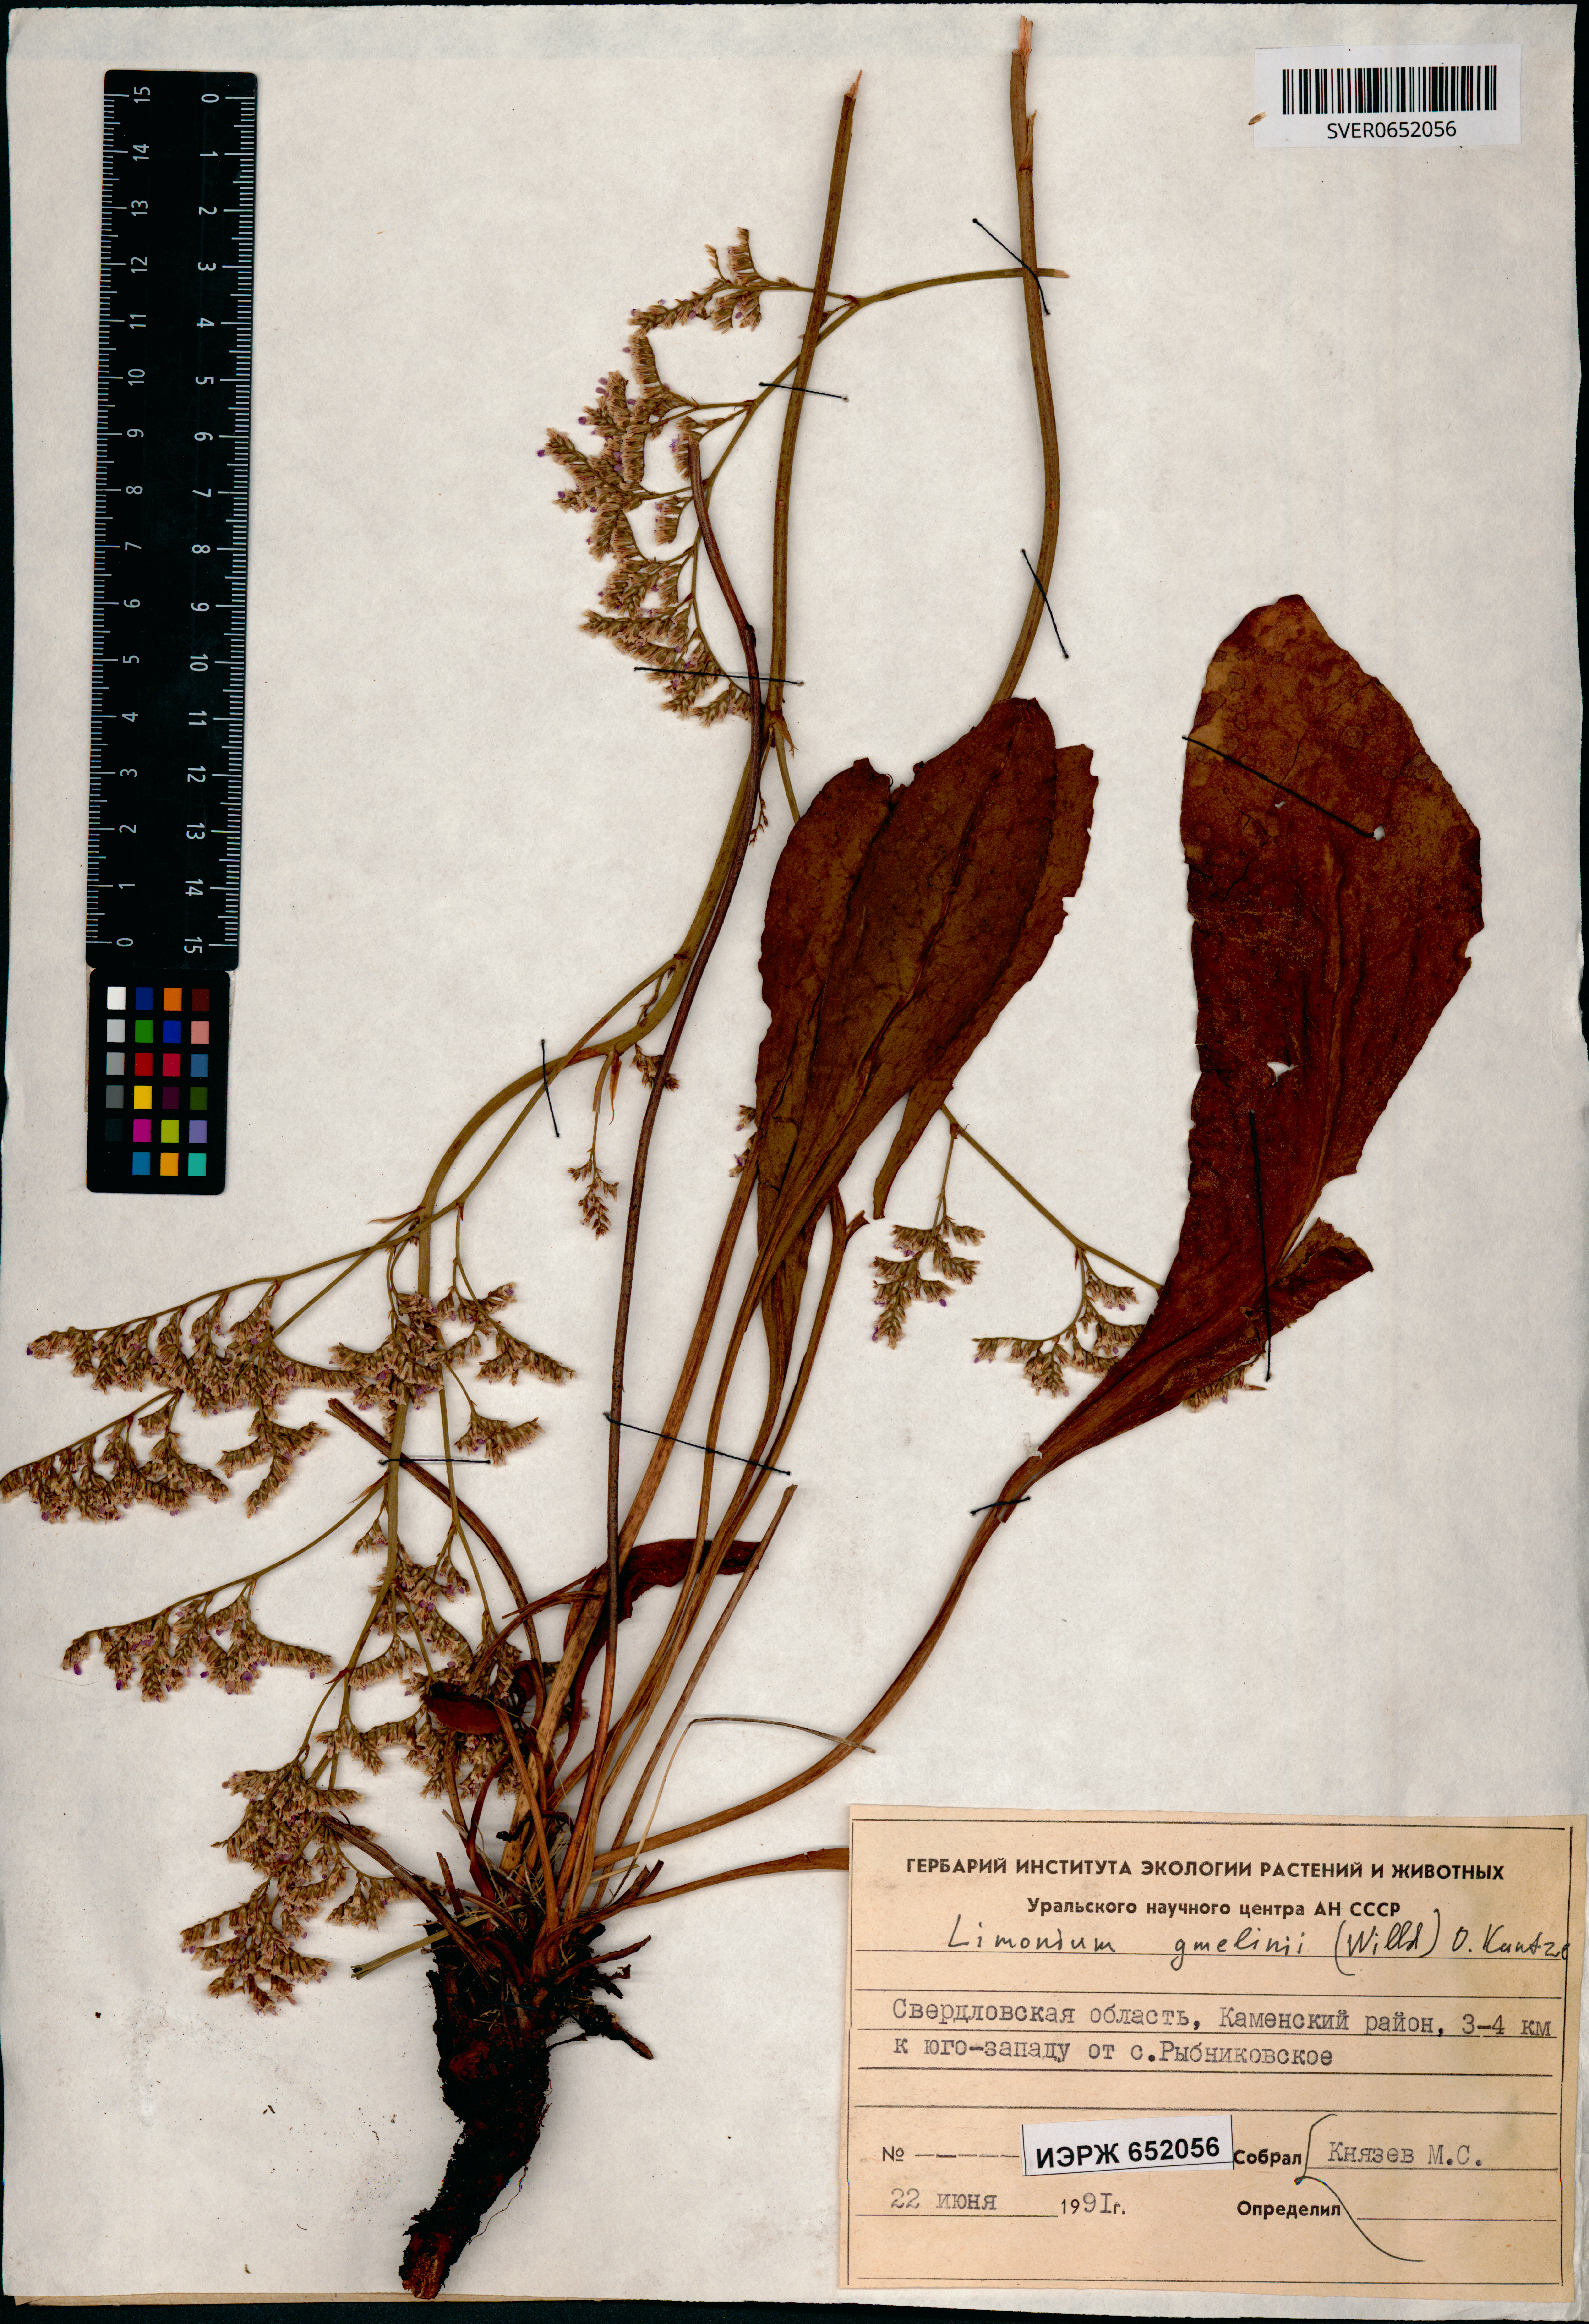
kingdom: Plantae
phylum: Tracheophyta
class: Magnoliopsida
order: Caryophyllales
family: Plumbaginaceae
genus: Limonium
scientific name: Limonium gmelini
